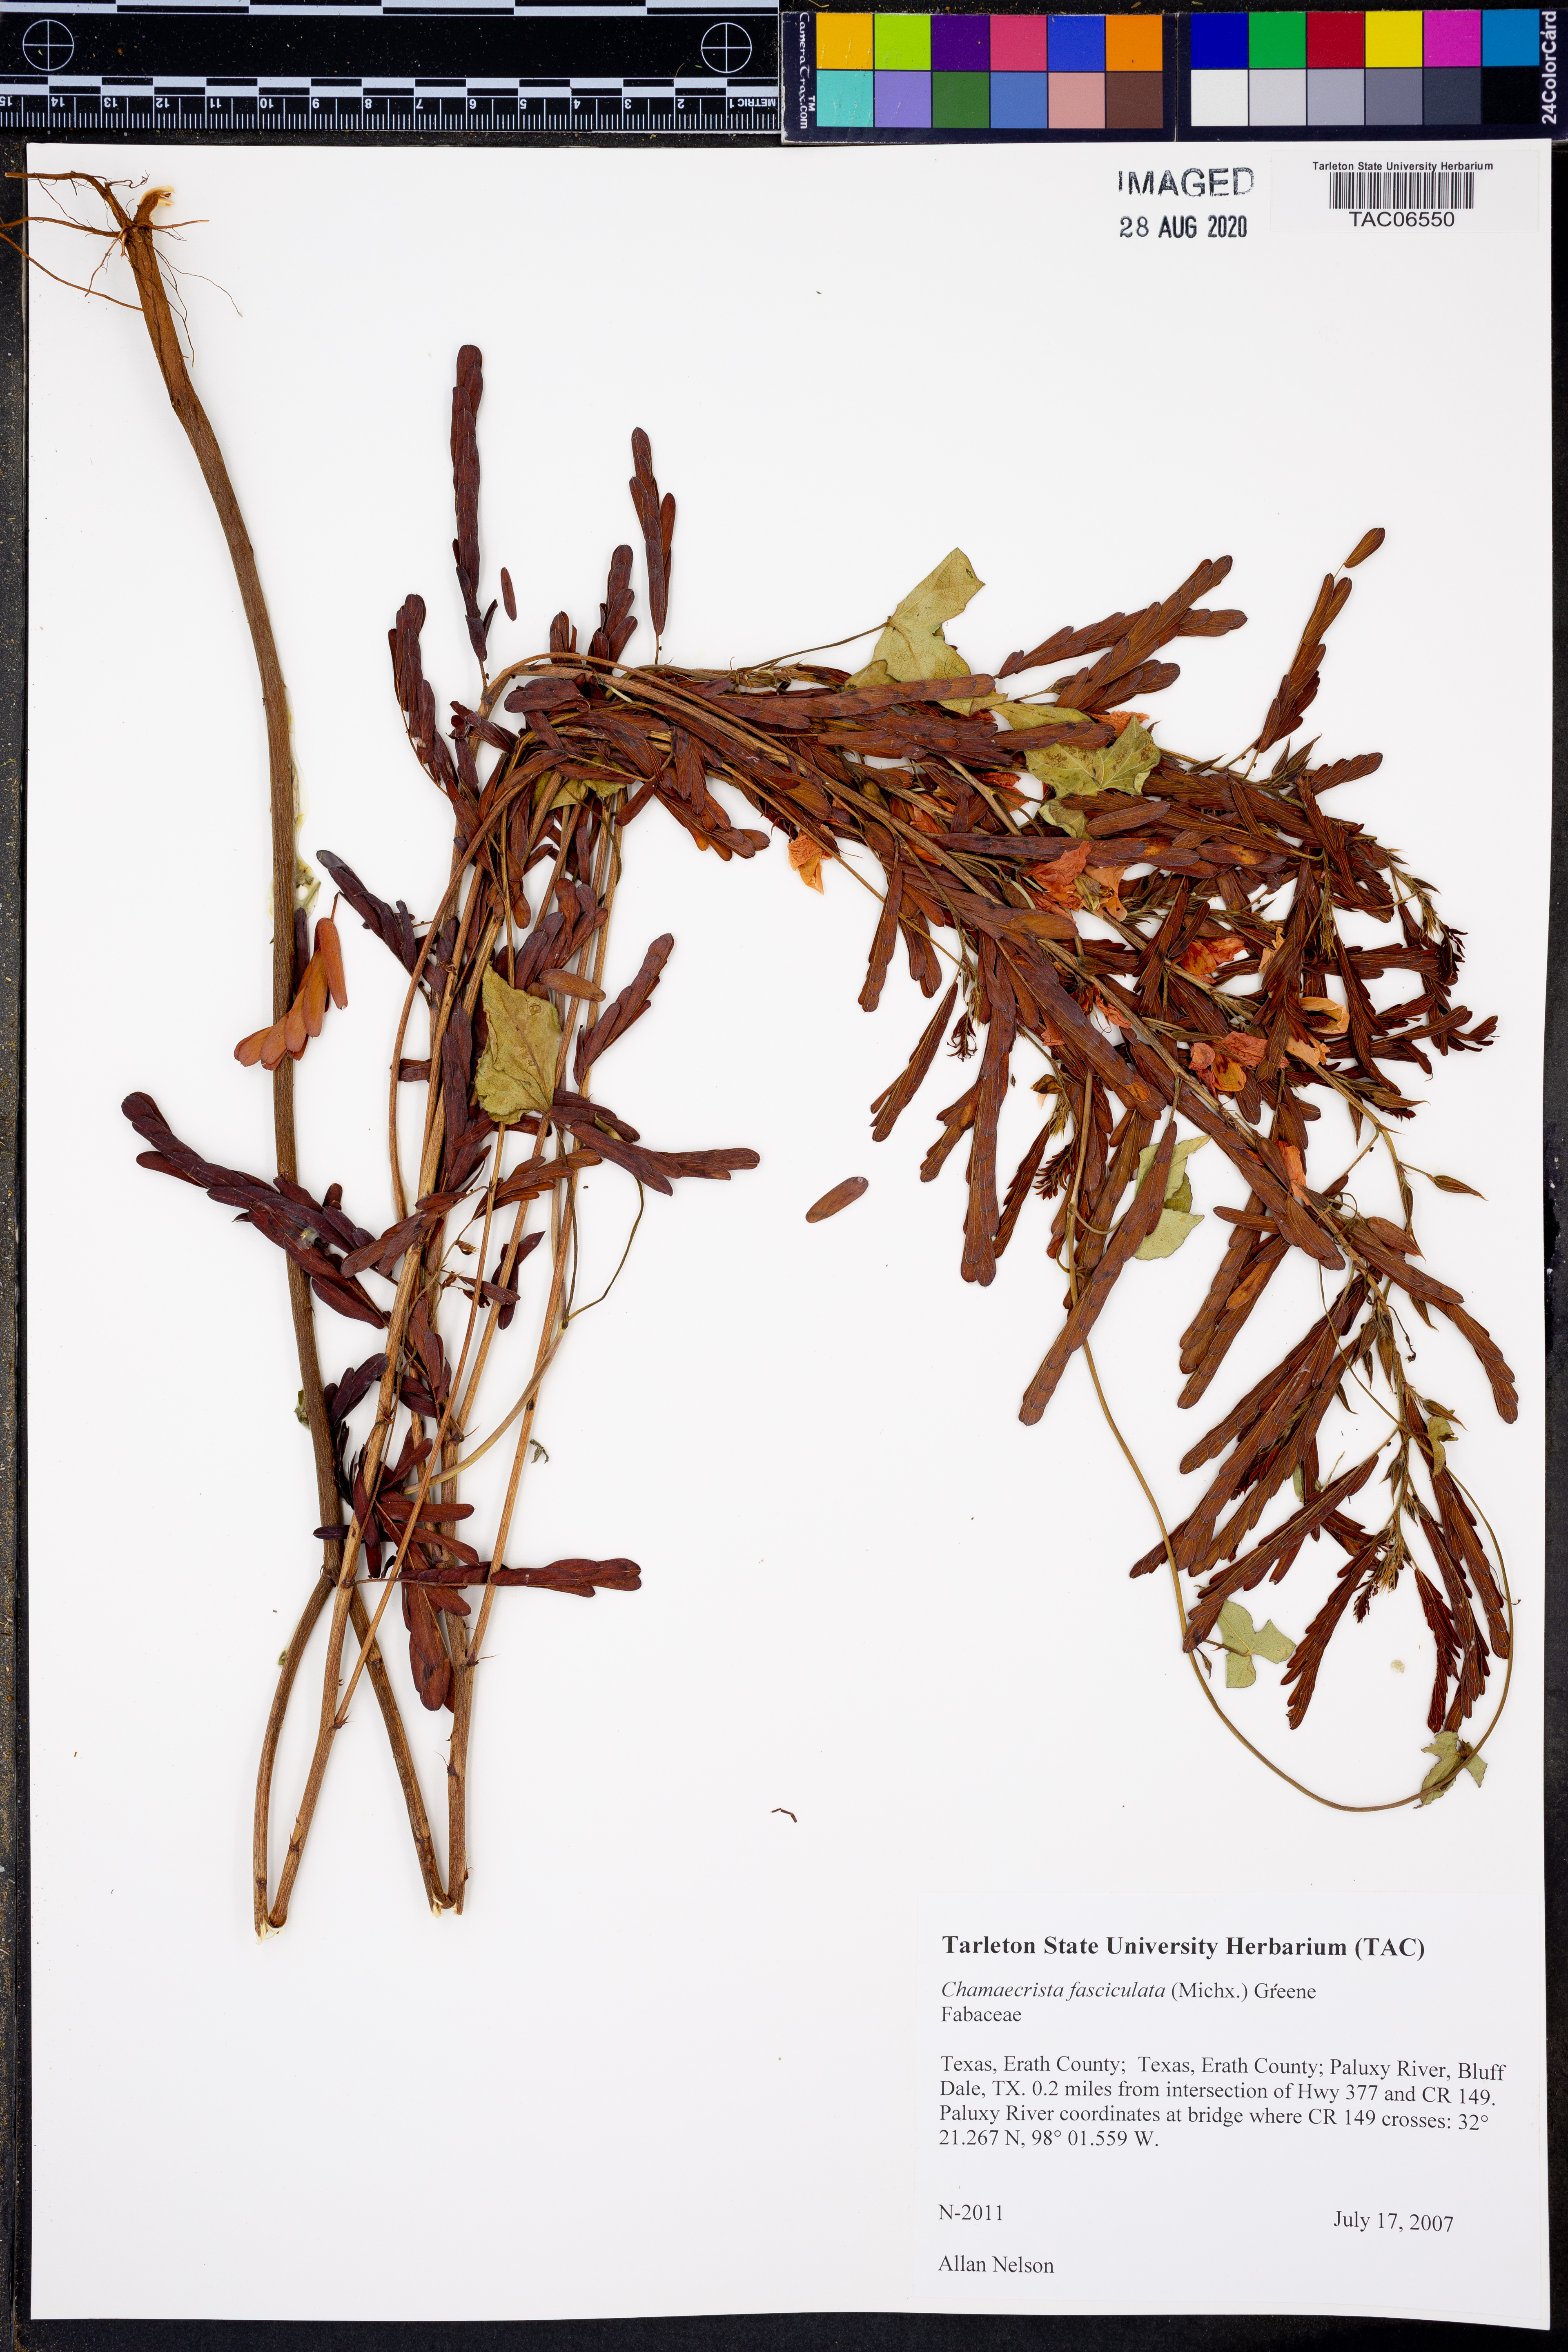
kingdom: Plantae
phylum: Tracheophyta
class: Magnoliopsida
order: Fabales
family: Fabaceae
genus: Chamaecrista
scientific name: Chamaecrista fasciculata
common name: Golden cassia
